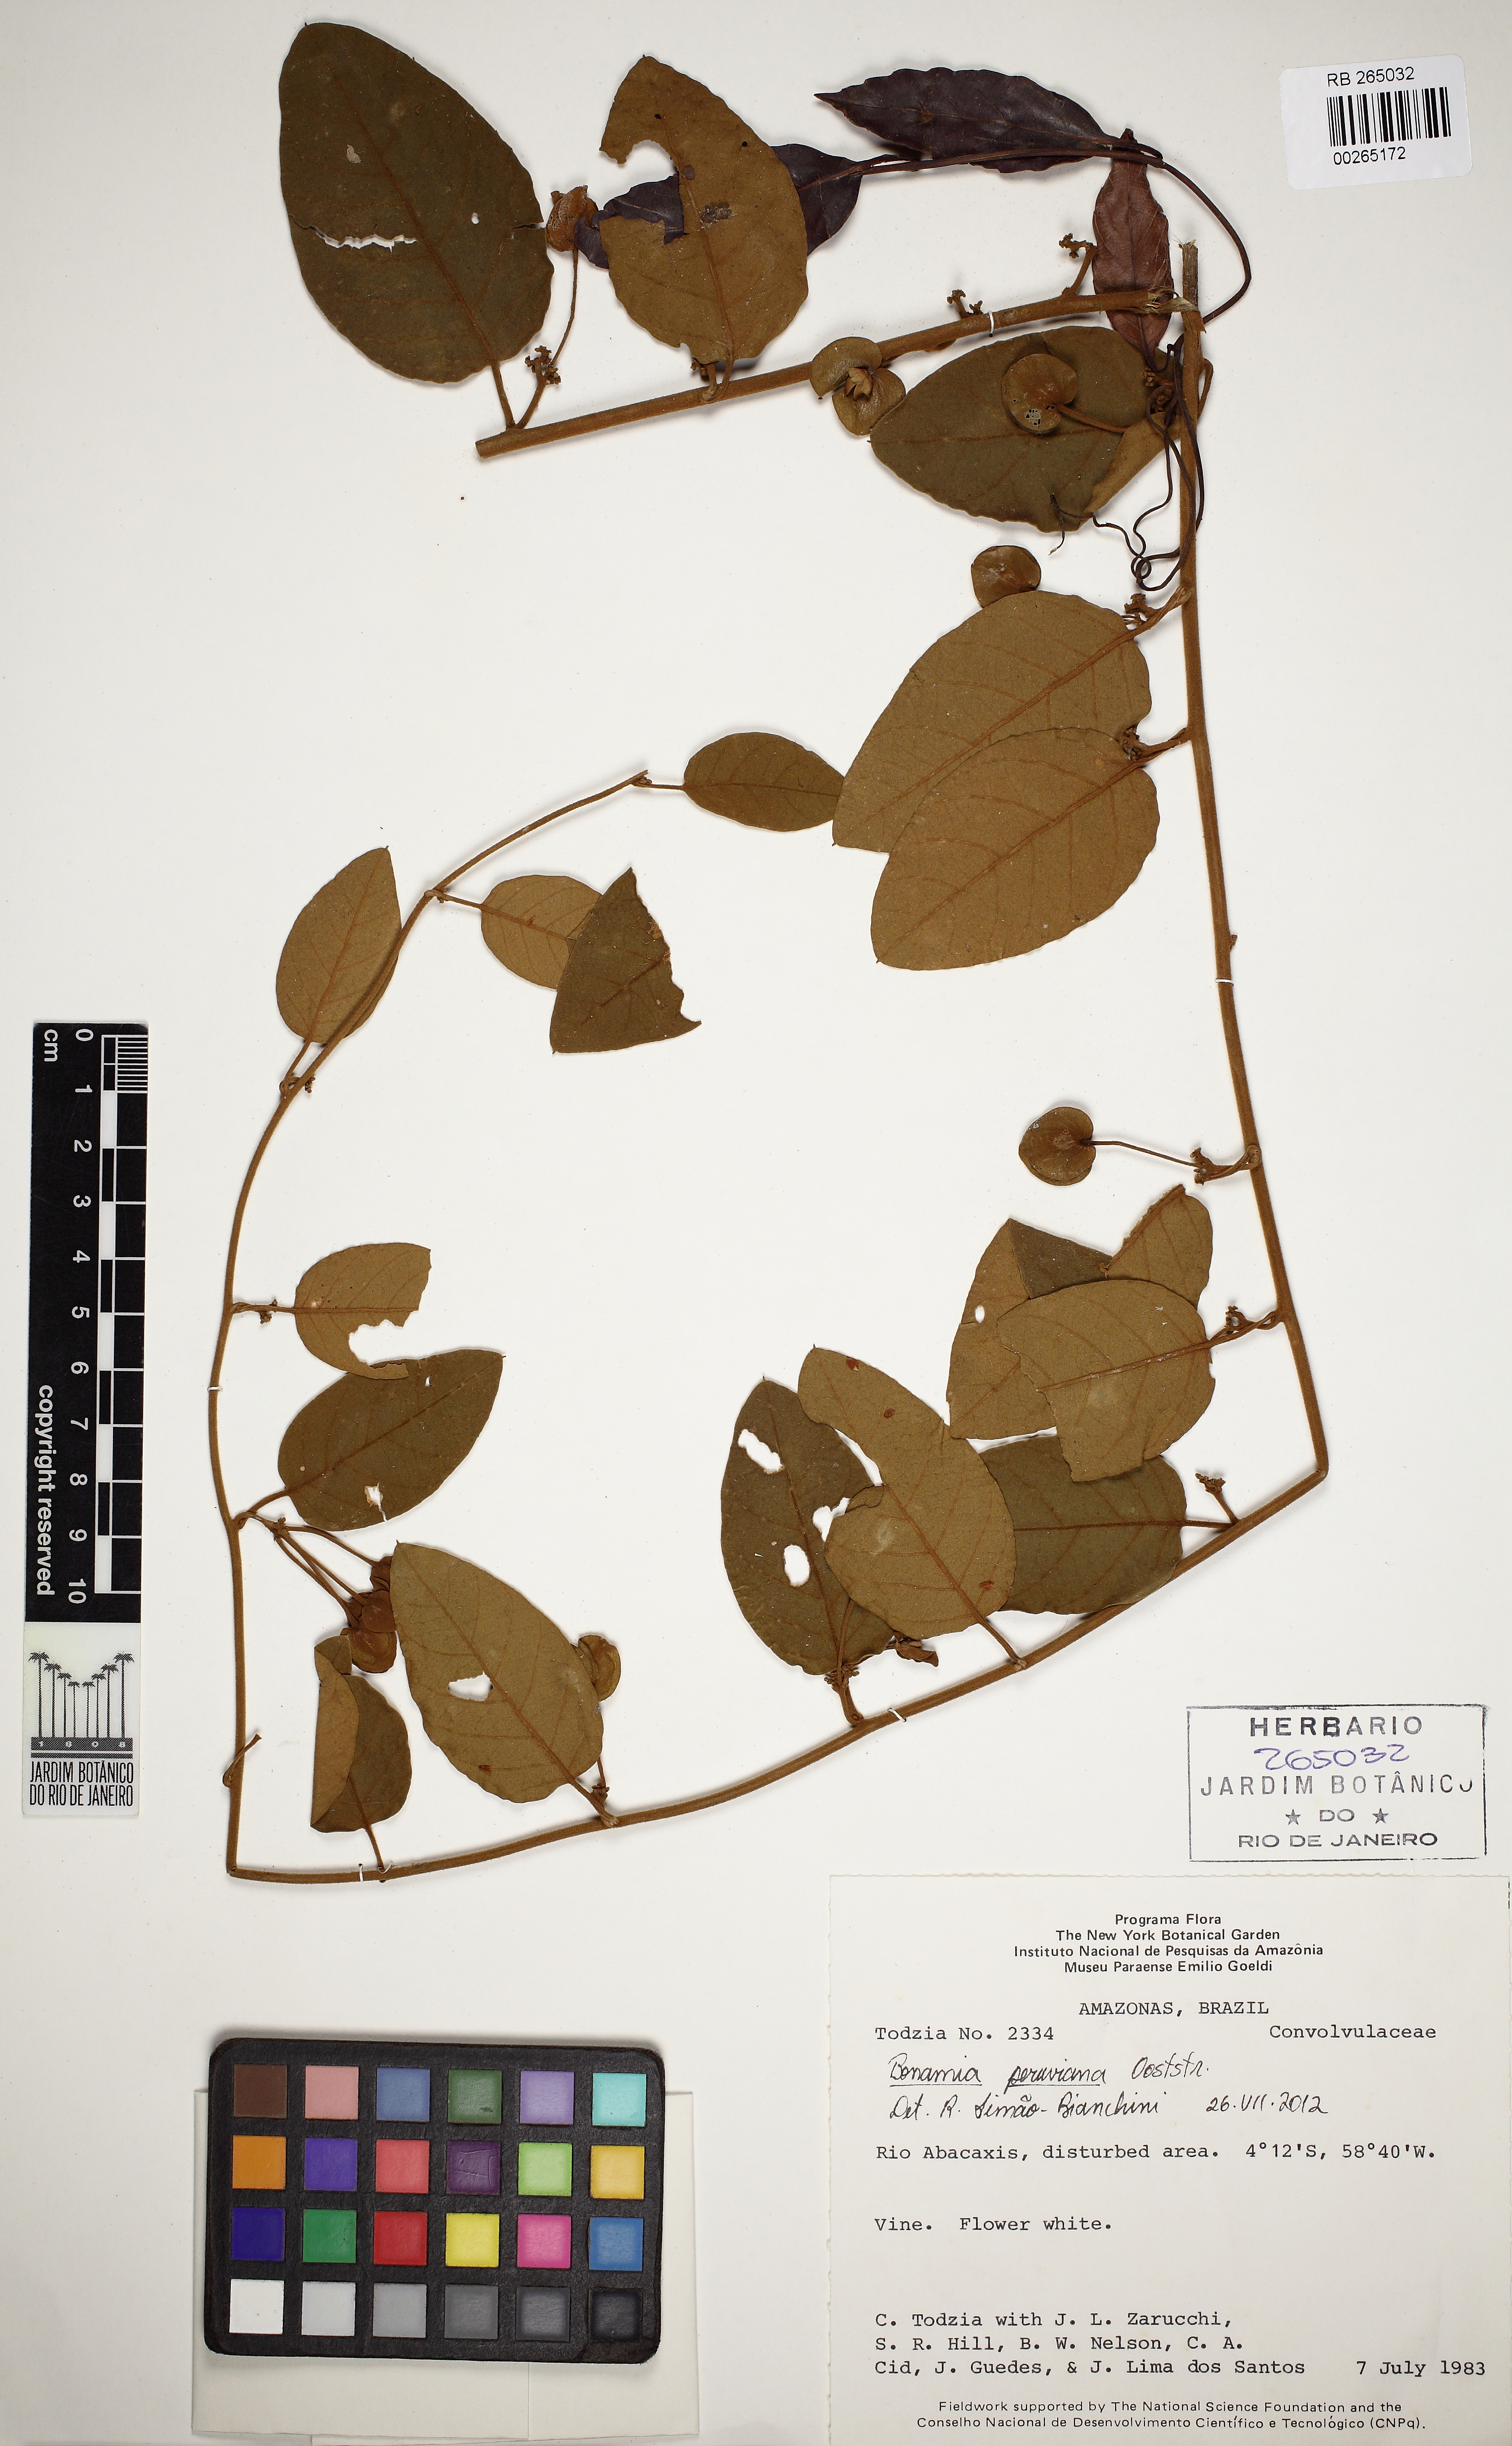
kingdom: Plantae
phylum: Tracheophyta
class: Magnoliopsida
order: Solanales
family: Convolvulaceae
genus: Bonamia
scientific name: Bonamia kuhlmannii
